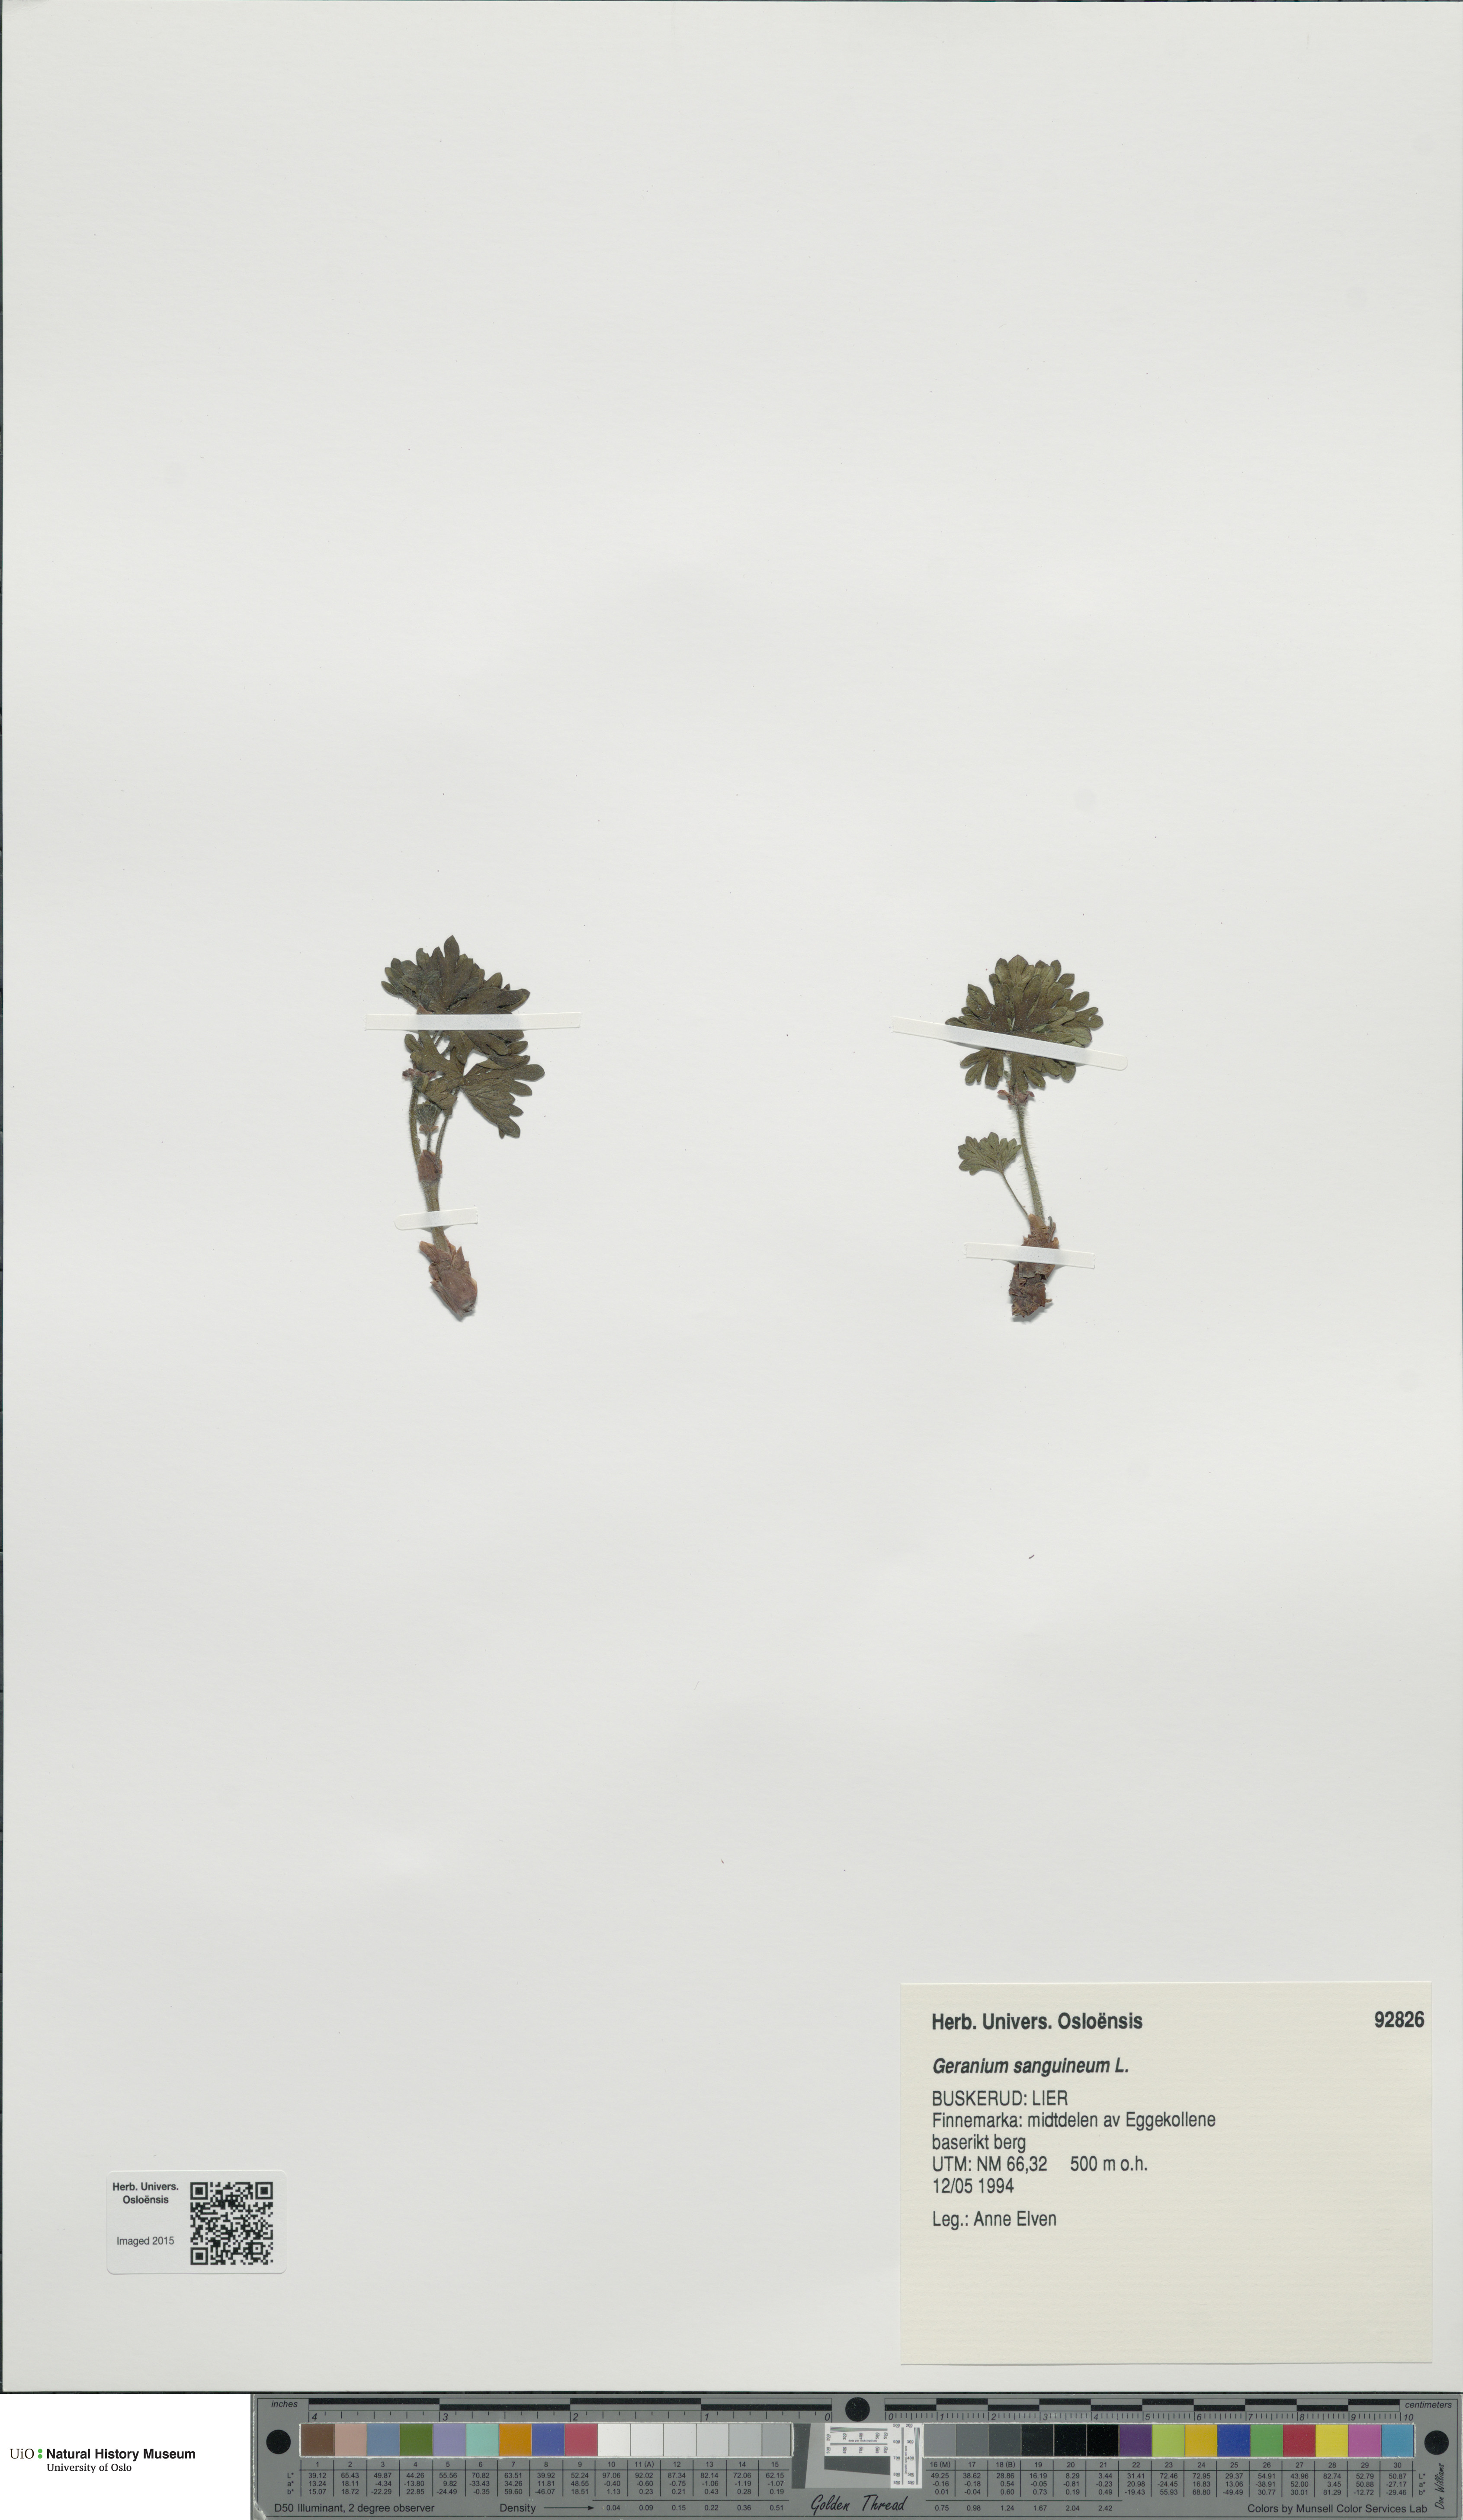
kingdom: Plantae
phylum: Tracheophyta
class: Magnoliopsida
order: Geraniales
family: Geraniaceae
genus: Geranium
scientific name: Geranium sanguineum
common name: Bloody crane's-bill
